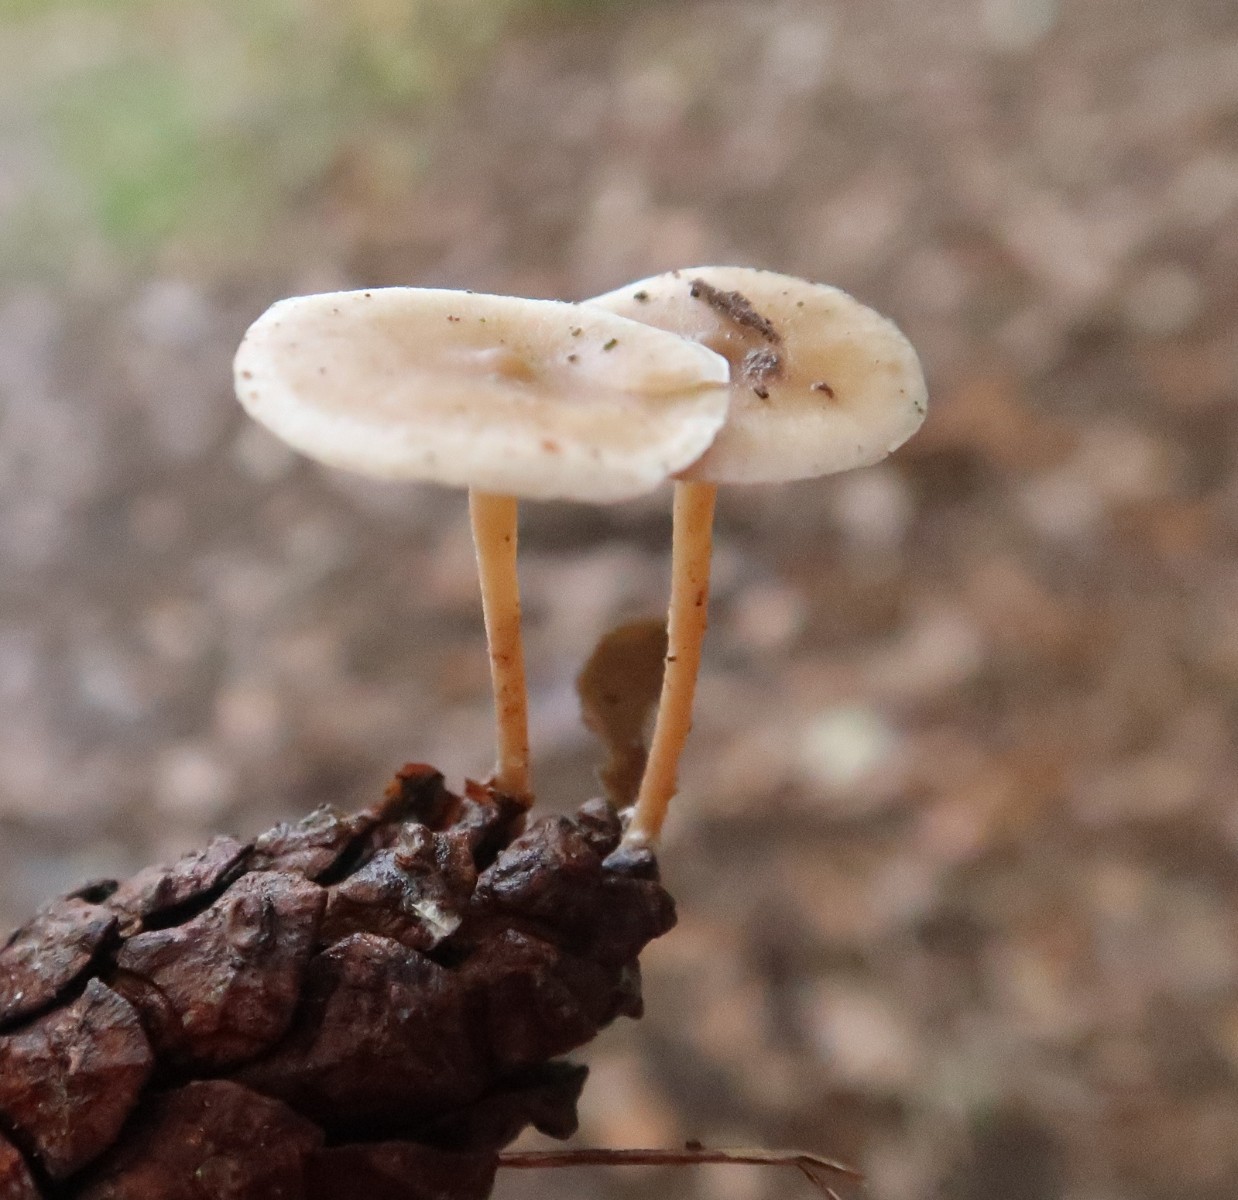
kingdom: Fungi
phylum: Basidiomycota
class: Agaricomycetes
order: Agaricales
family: Marasmiaceae
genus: Baeospora
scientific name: Baeospora myosura
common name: koglebruskhat
